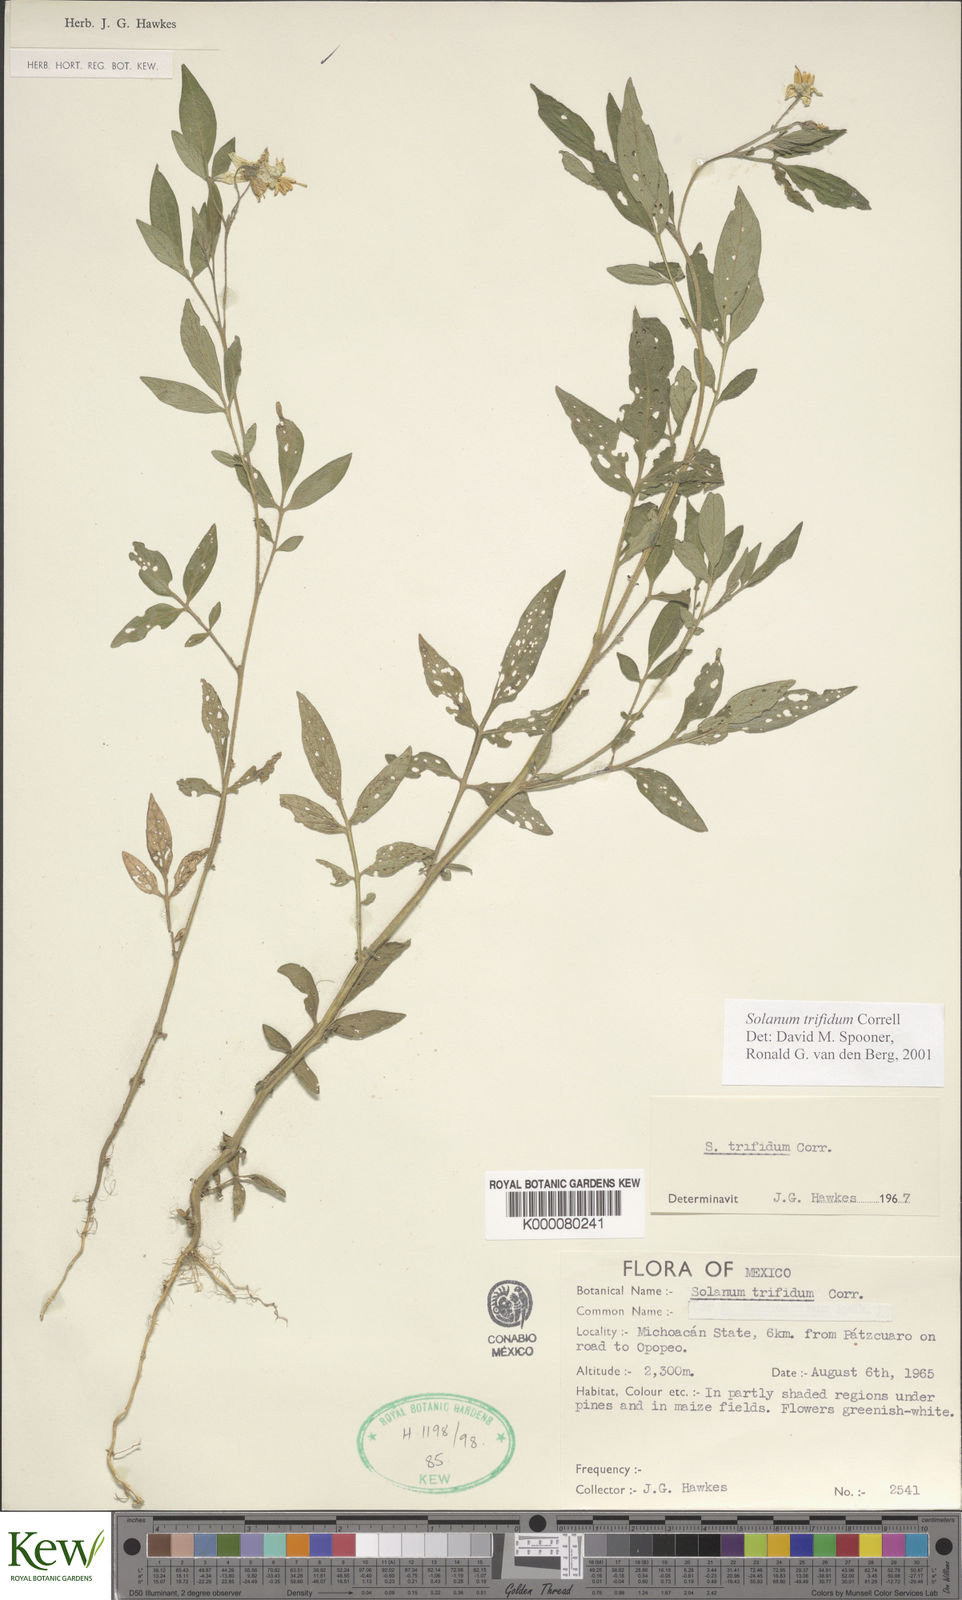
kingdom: Plantae
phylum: Tracheophyta
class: Magnoliopsida
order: Solanales
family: Solanaceae
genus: Solanum
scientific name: Solanum trifidum
